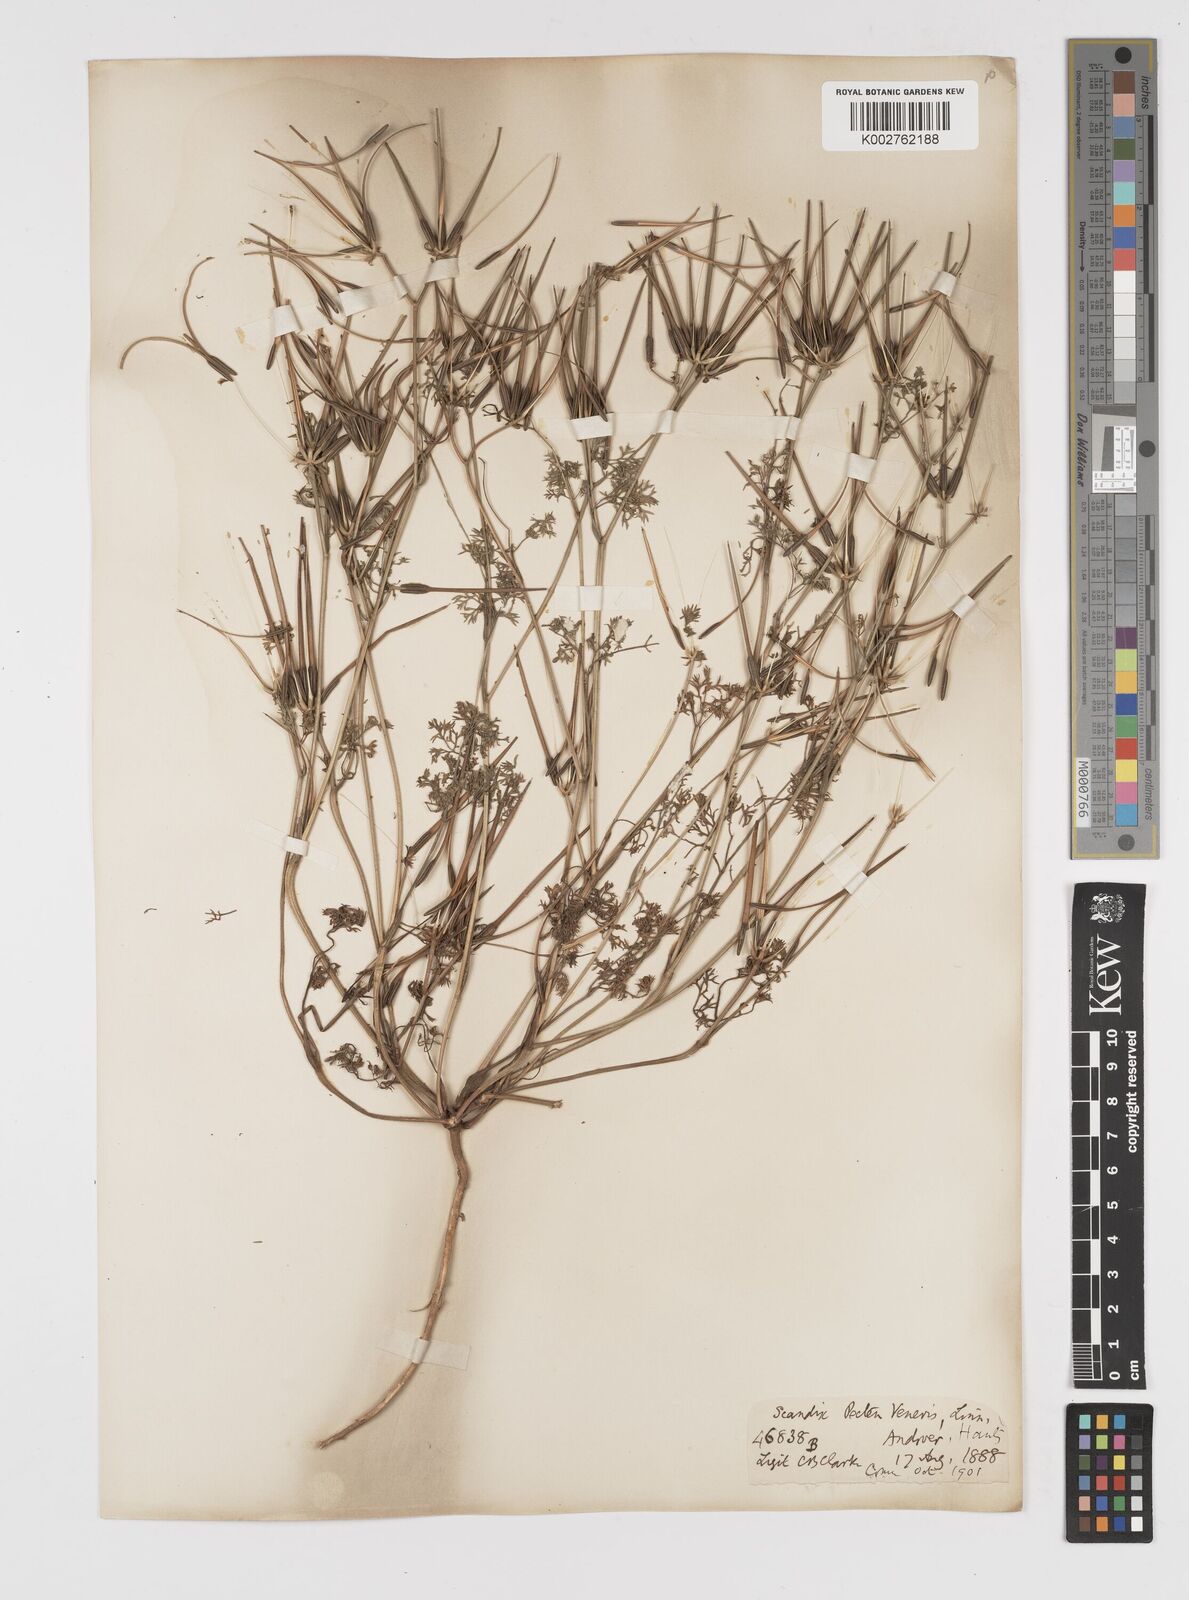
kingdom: Plantae
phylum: Tracheophyta
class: Magnoliopsida
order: Apiales
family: Apiaceae
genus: Scandix
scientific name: Scandix pecten-veneris
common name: Shepherd's-needle
